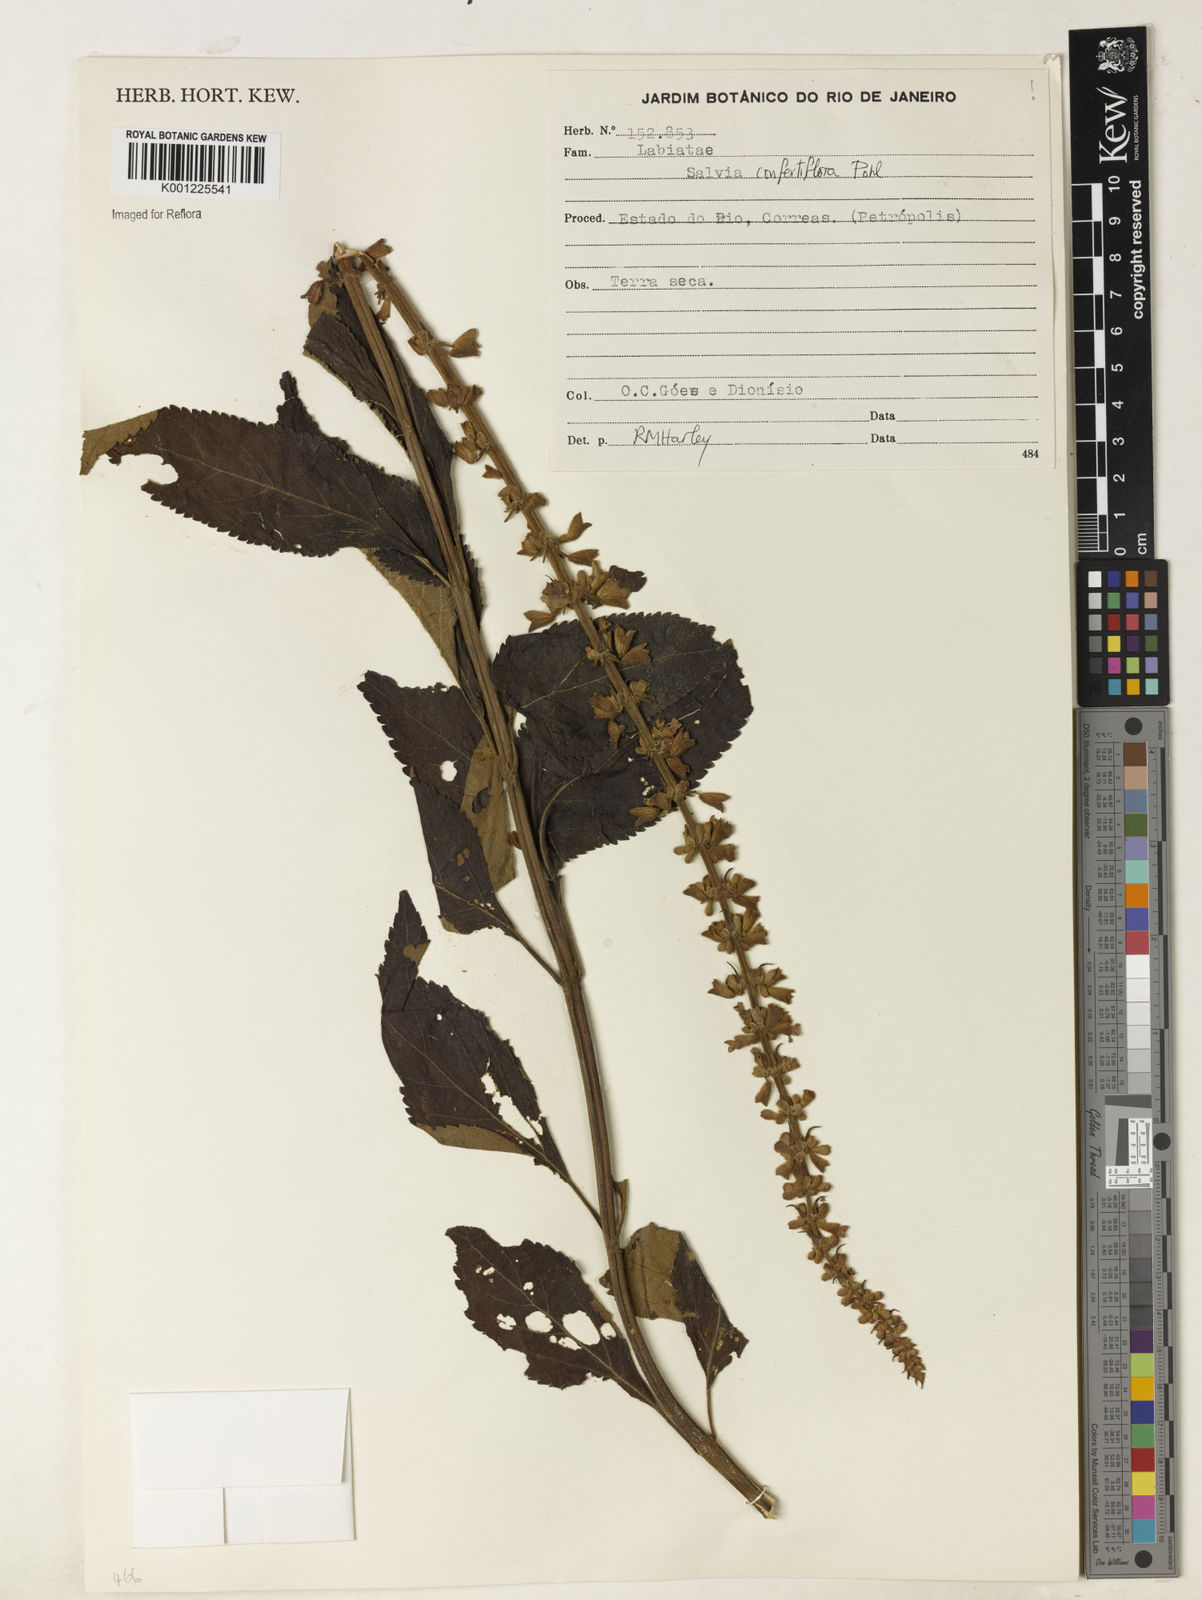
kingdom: Plantae
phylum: Tracheophyta
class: Magnoliopsida
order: Lamiales
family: Lamiaceae
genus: Salvia
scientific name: Salvia confertiflora
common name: Sabra-spike sage
